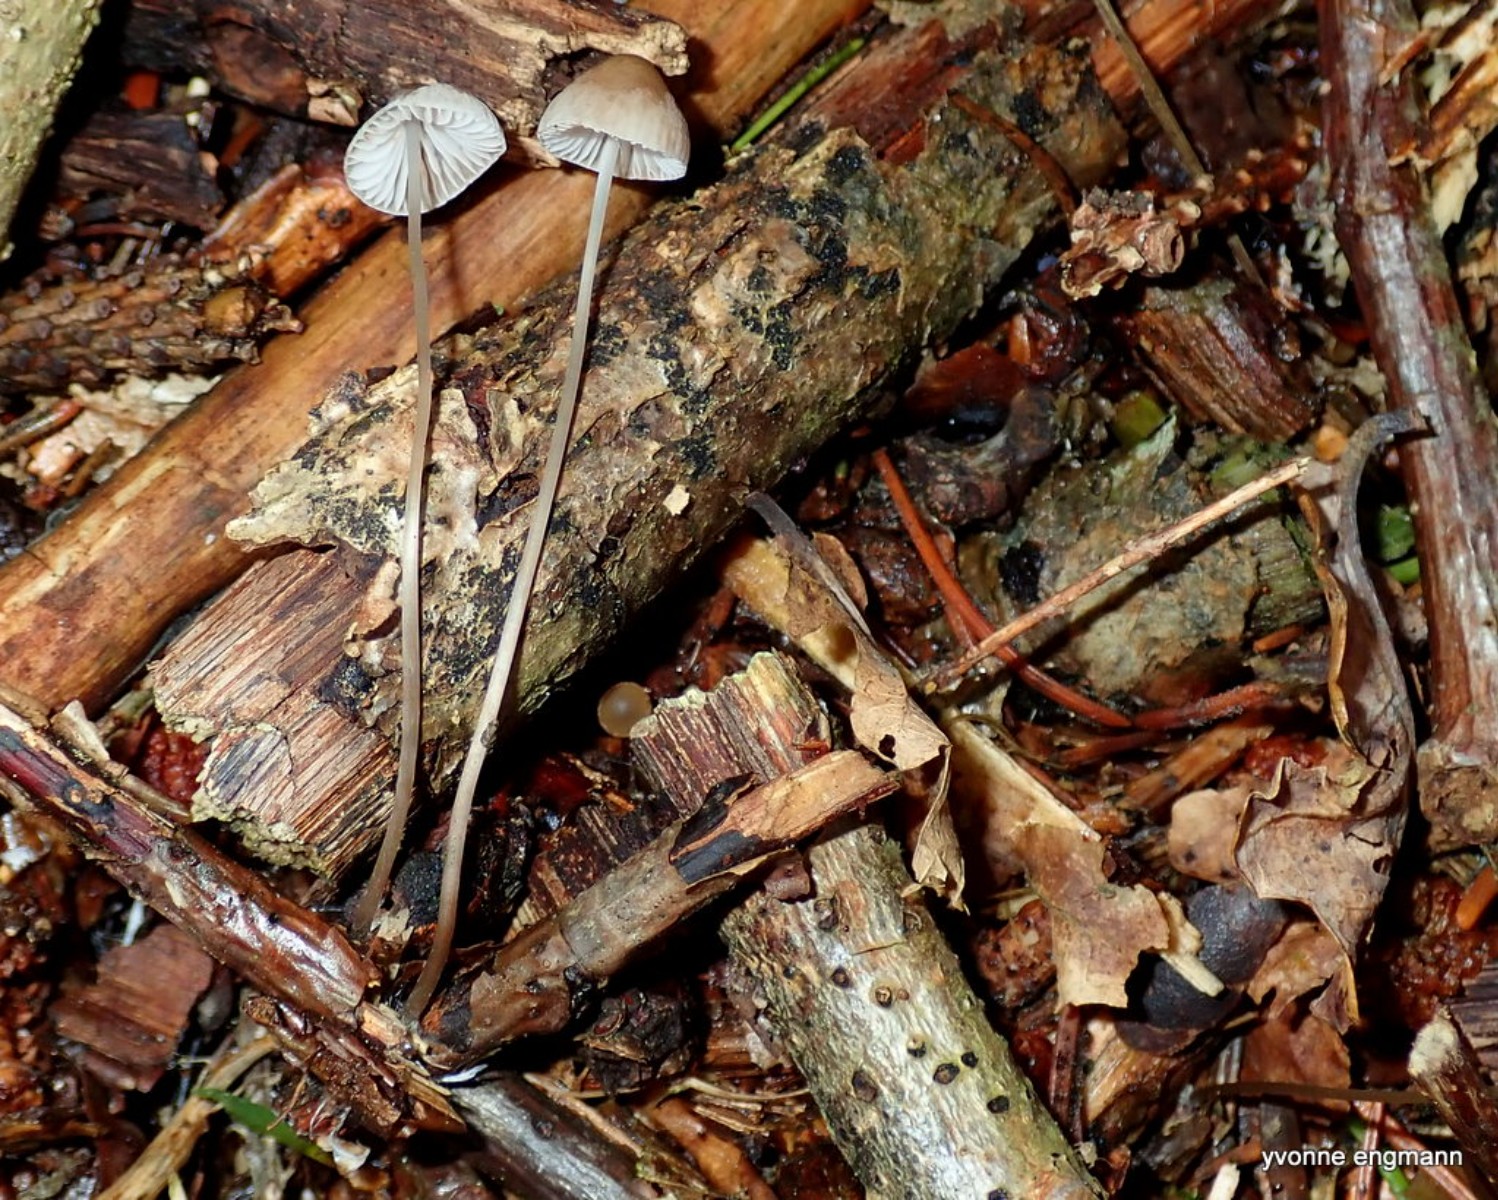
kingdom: Fungi
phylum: Basidiomycota
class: Agaricomycetes
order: Agaricales
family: Mycenaceae
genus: Mycena
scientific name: Mycena vitilis
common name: blankstokket huesvamp
